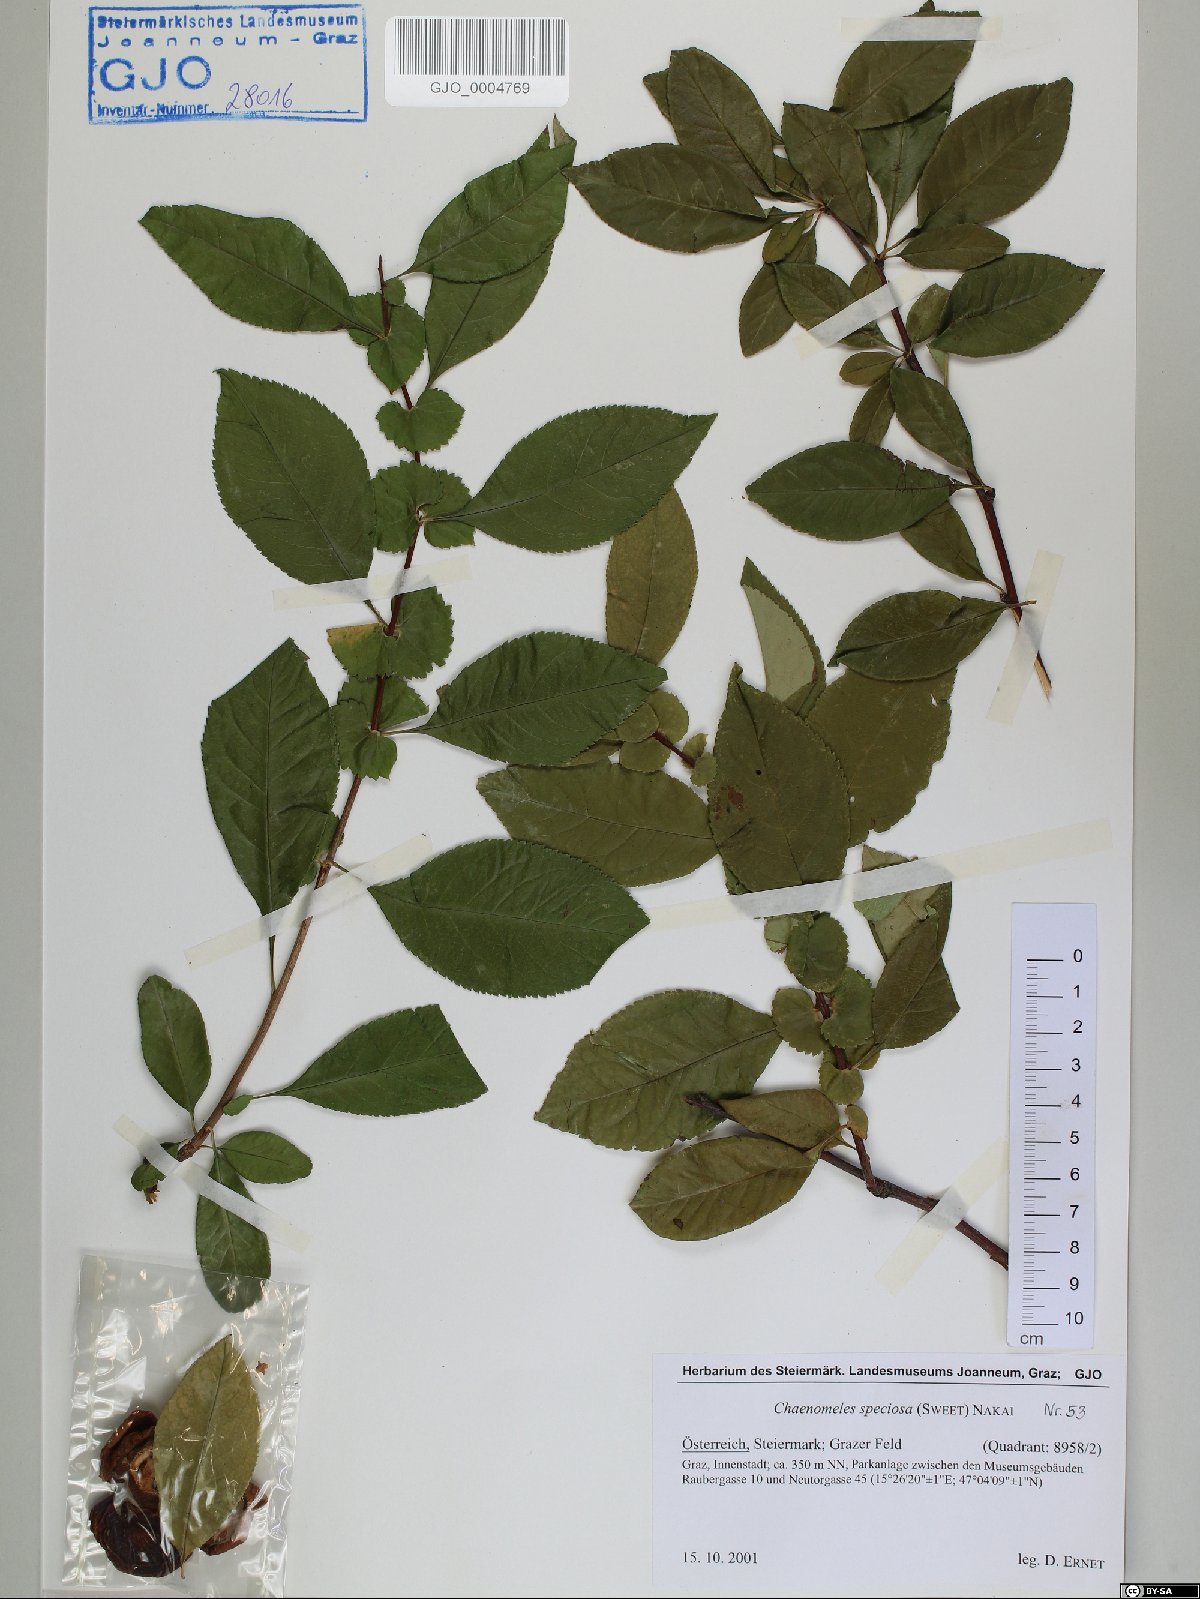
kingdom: Plantae
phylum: Tracheophyta
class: Magnoliopsida
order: Rosales
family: Rosaceae
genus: Chaenomeles
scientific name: Chaenomeles speciosa
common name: Japanese quince
